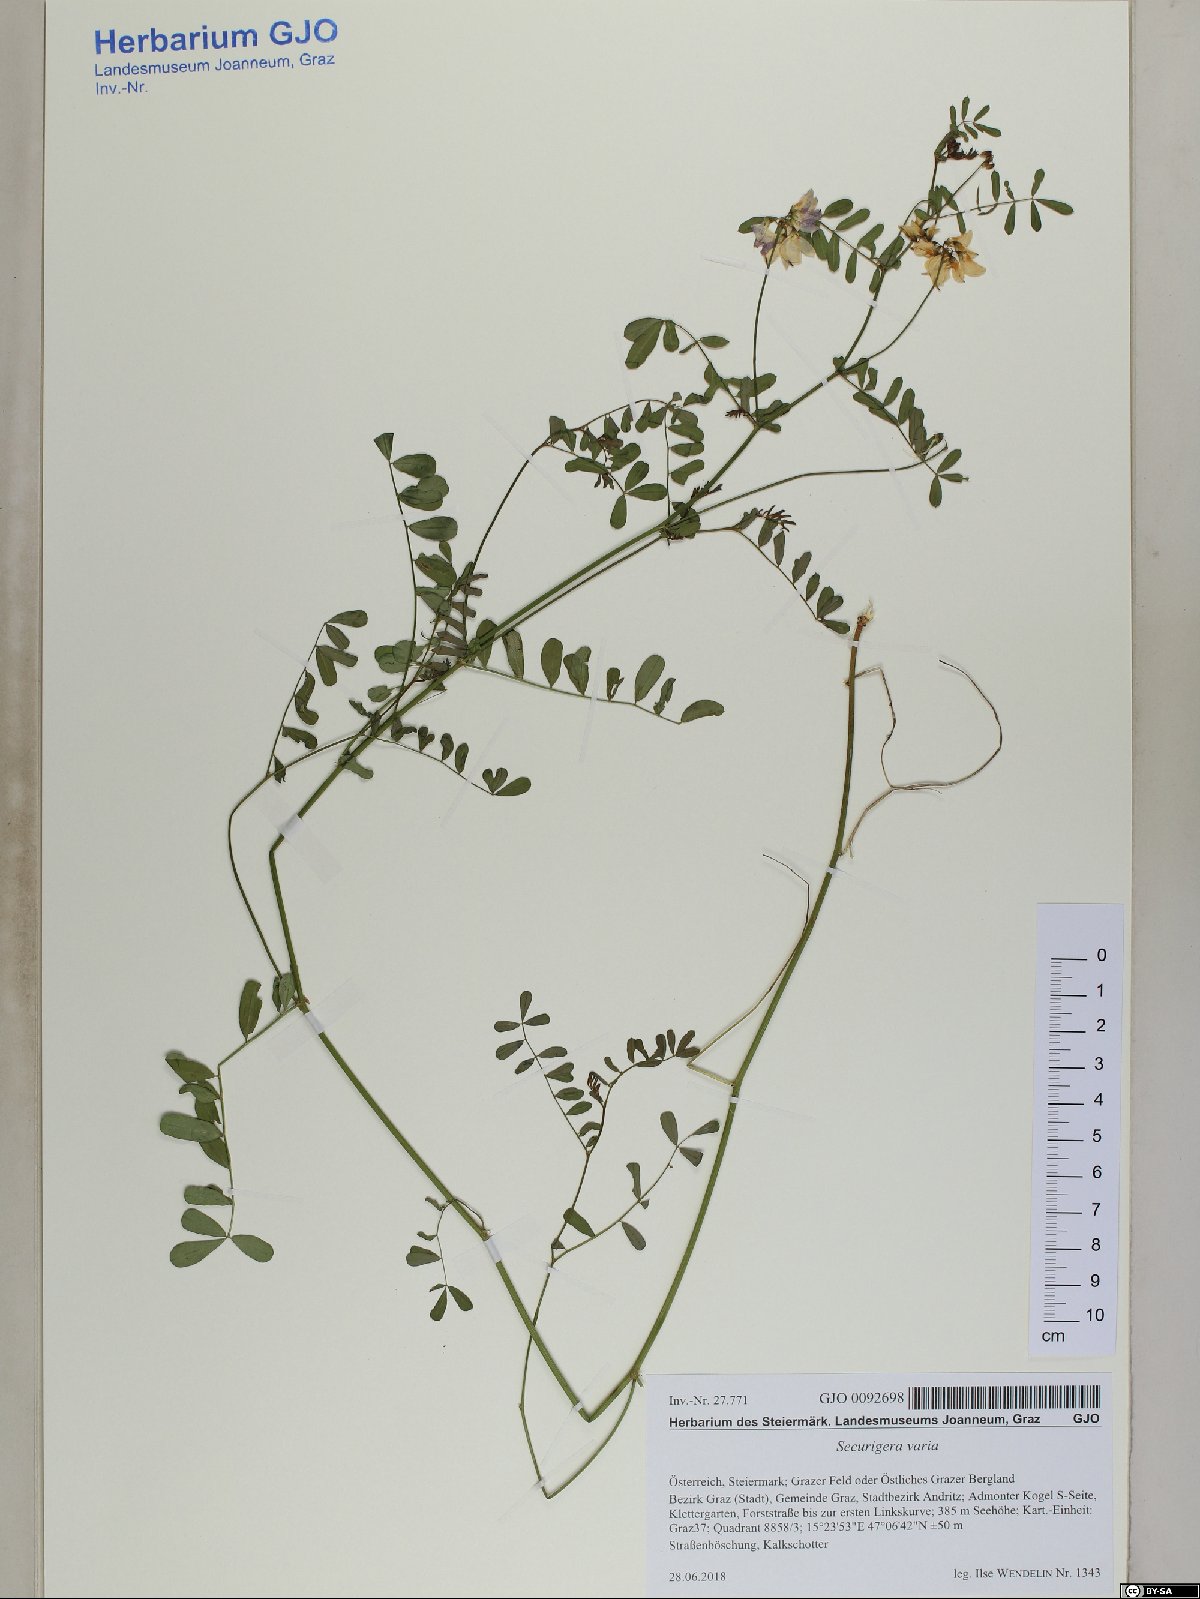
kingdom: Plantae
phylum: Tracheophyta
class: Magnoliopsida
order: Fabales
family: Fabaceae
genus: Coronilla
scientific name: Coronilla varia
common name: Crownvetch
